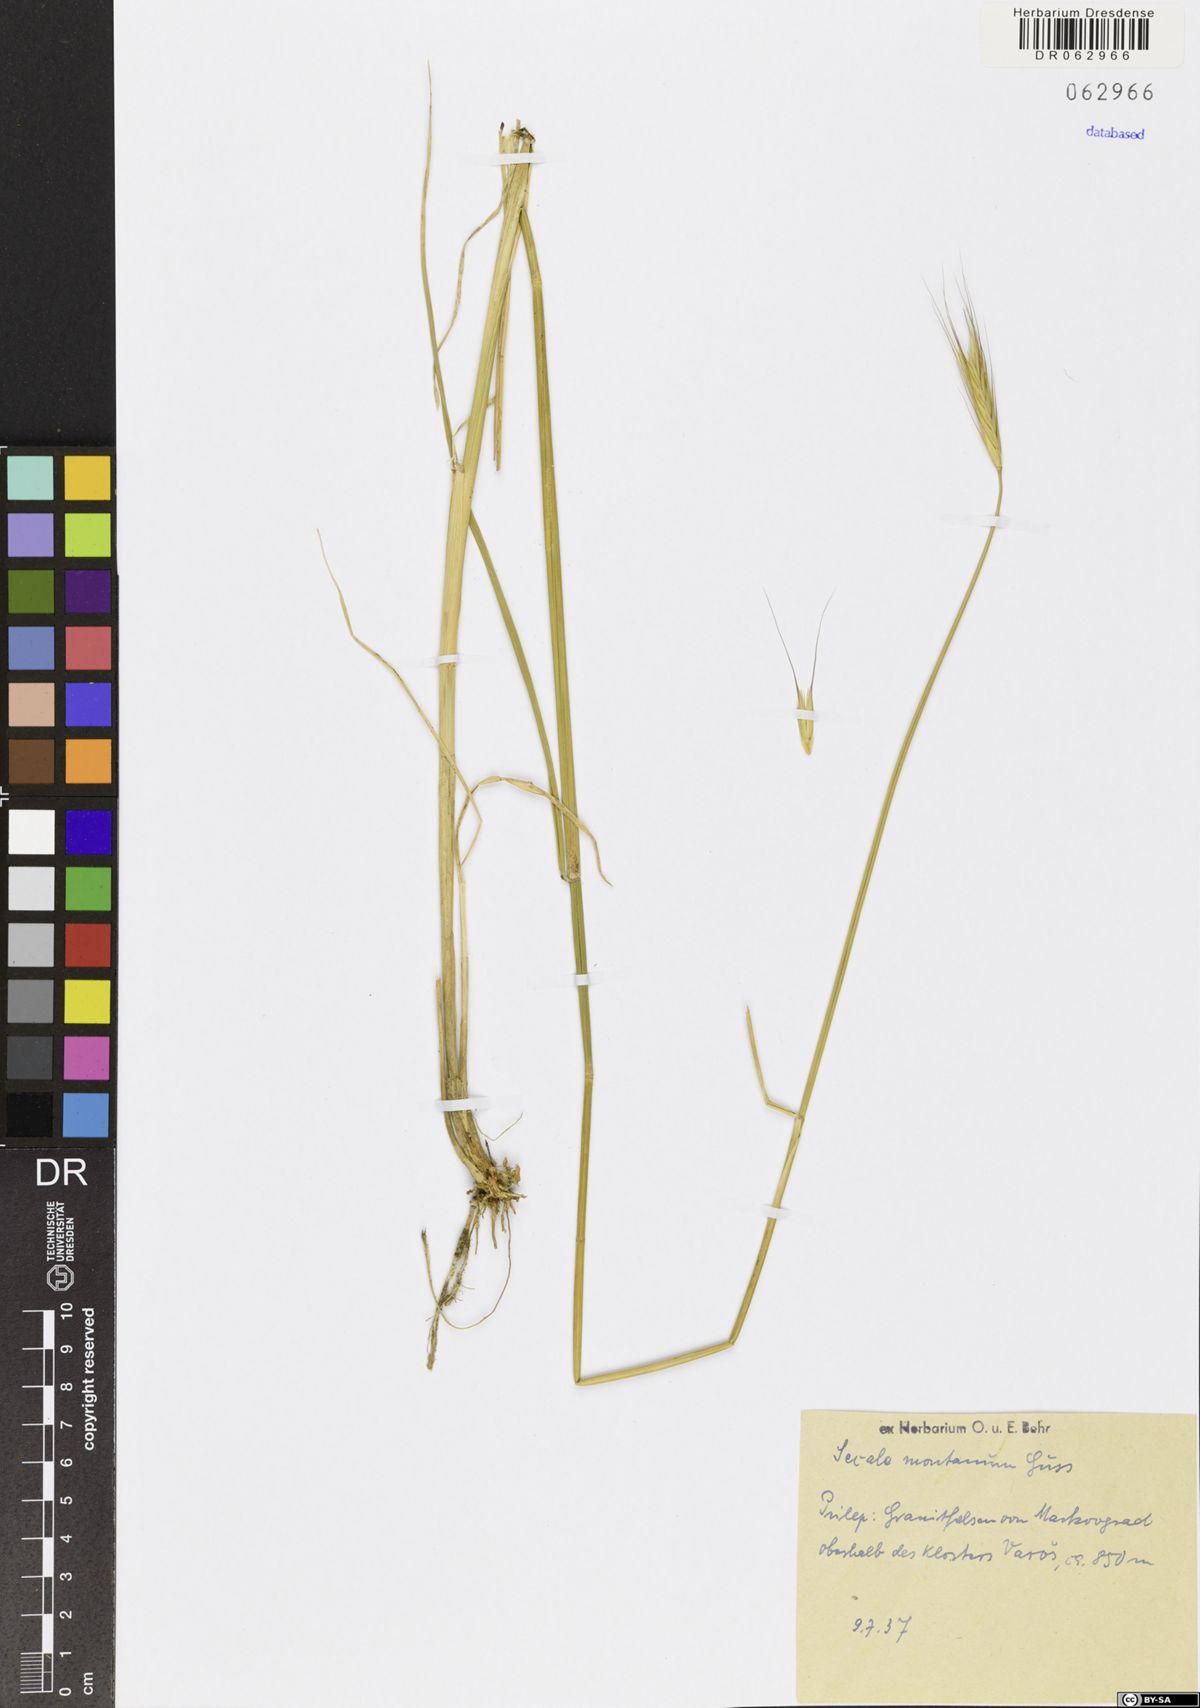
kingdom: Plantae
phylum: Tracheophyta
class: Liliopsida
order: Poales
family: Poaceae
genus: Secale
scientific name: Secale strictum
